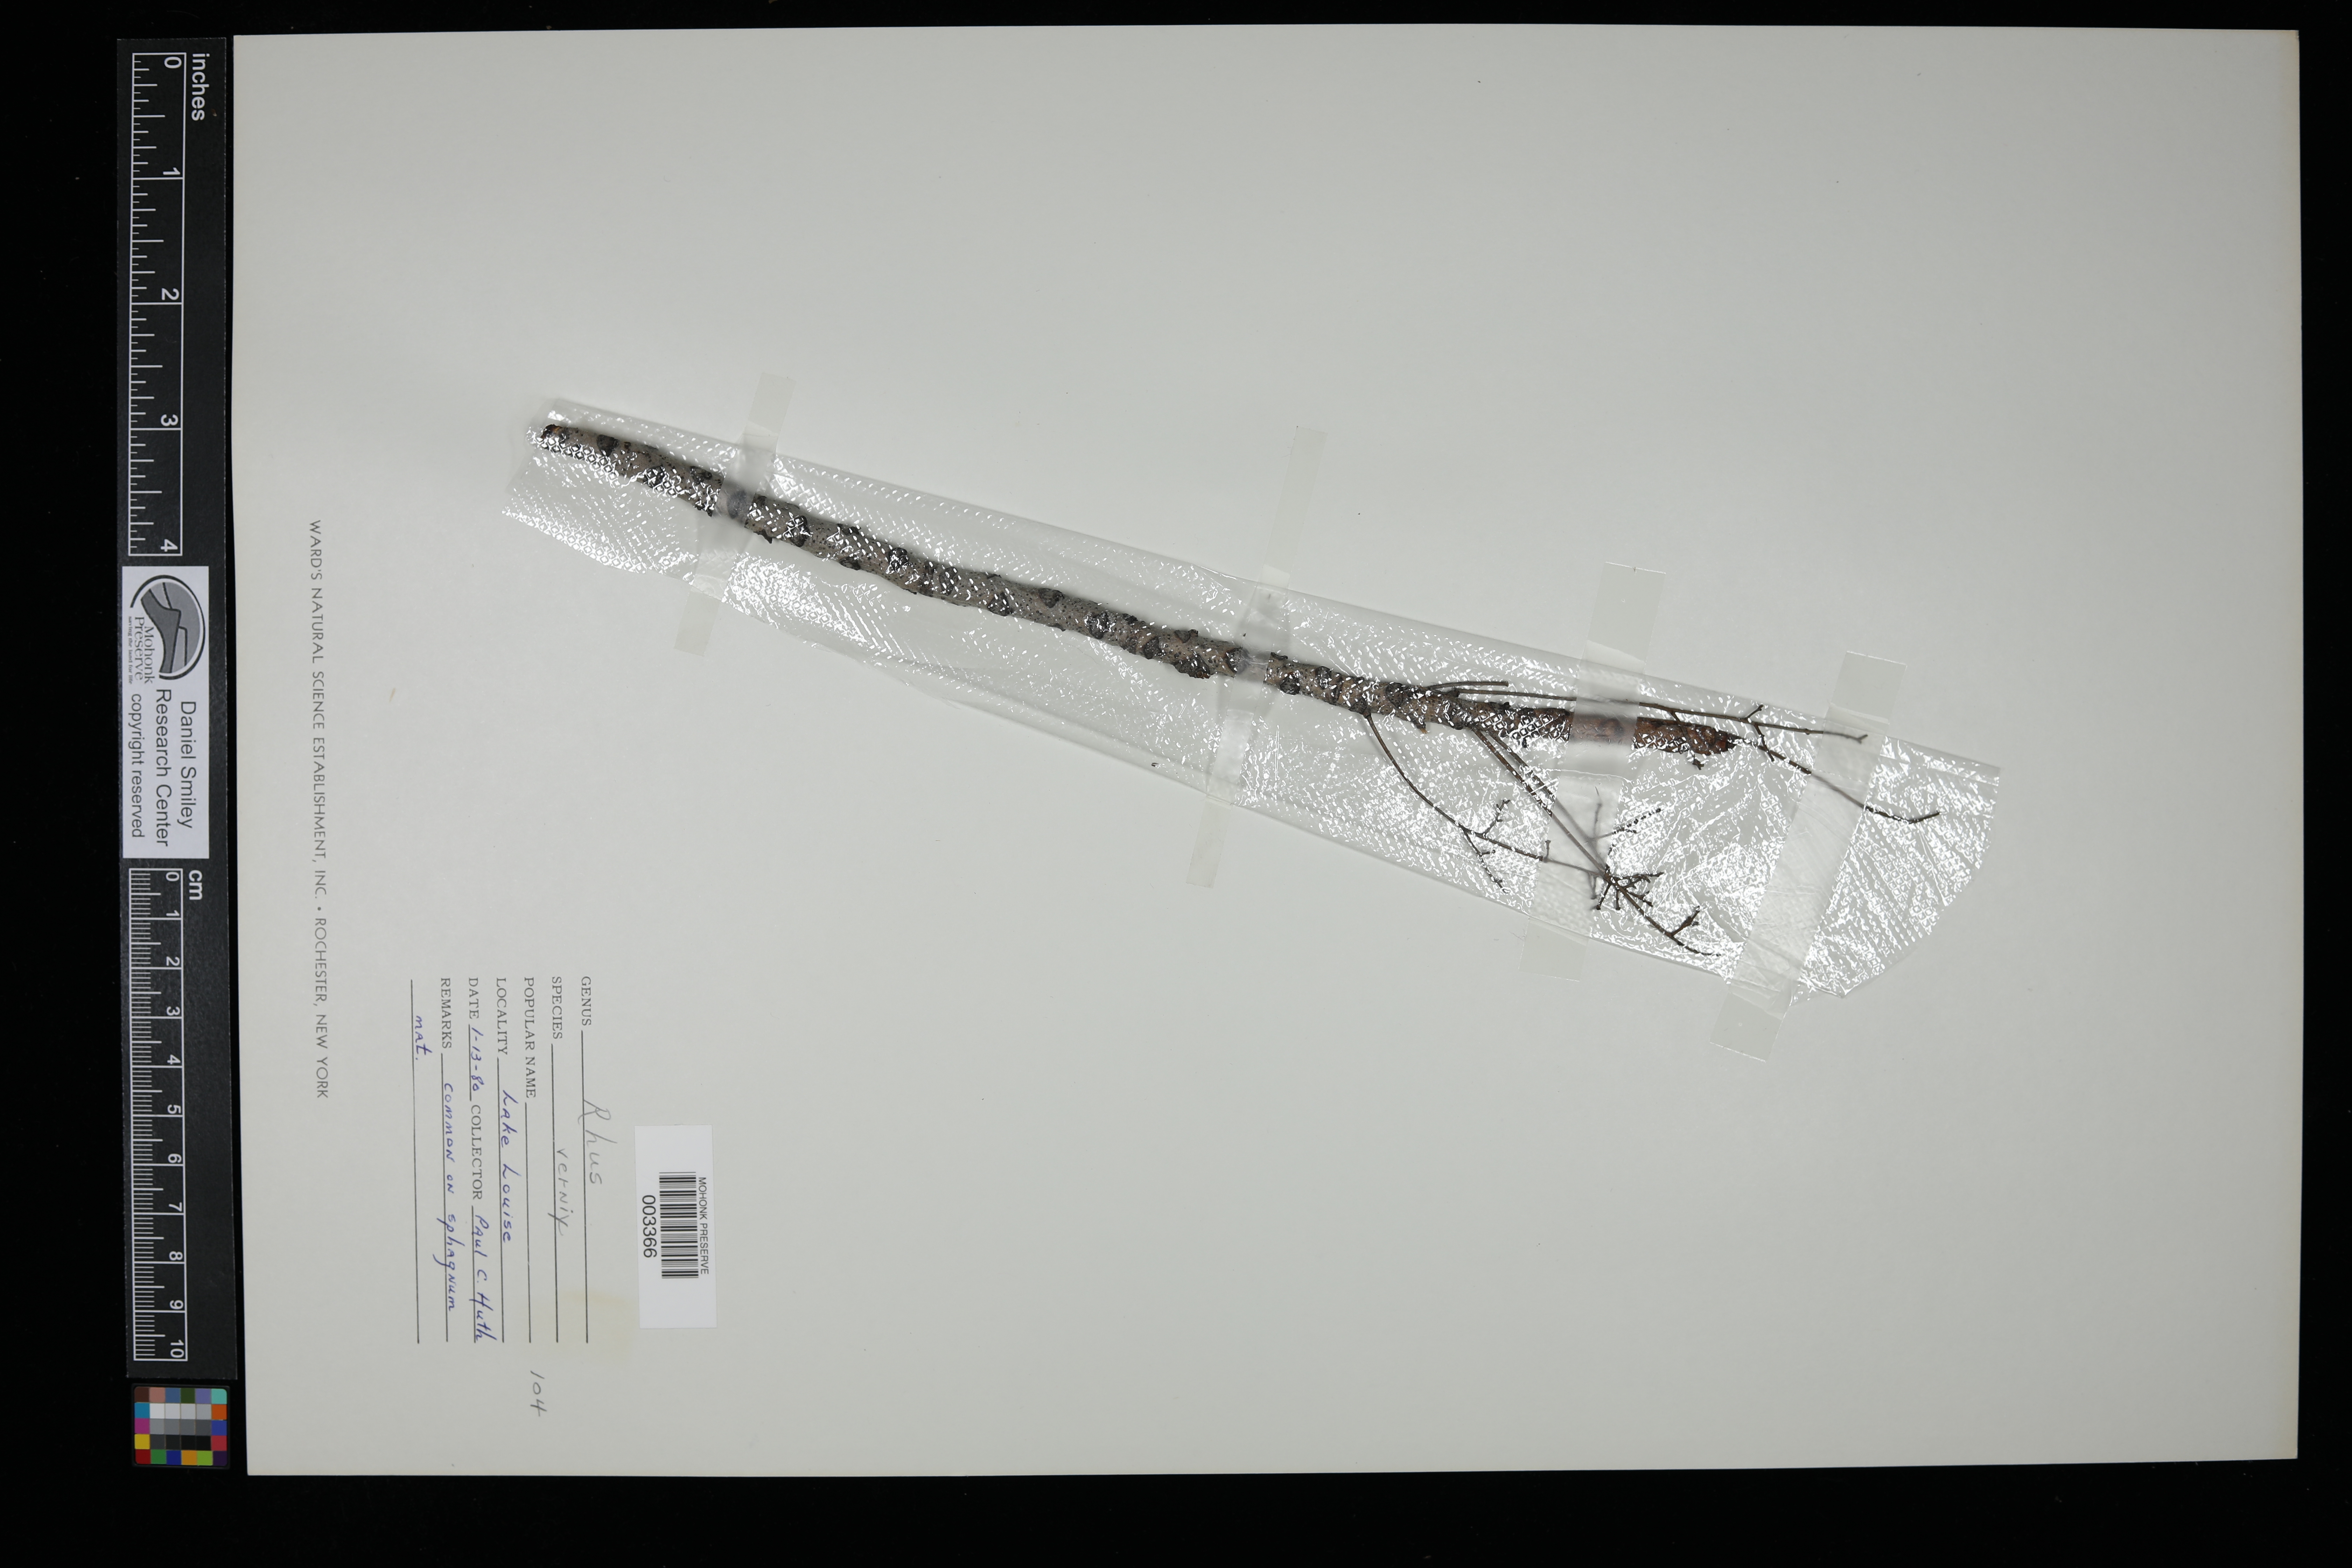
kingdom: Plantae
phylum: Tracheophyta
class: Magnoliopsida
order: Sapindales
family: Anacardiaceae
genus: Toxicodendron
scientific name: Toxicodendron vernix
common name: Poison sumac
